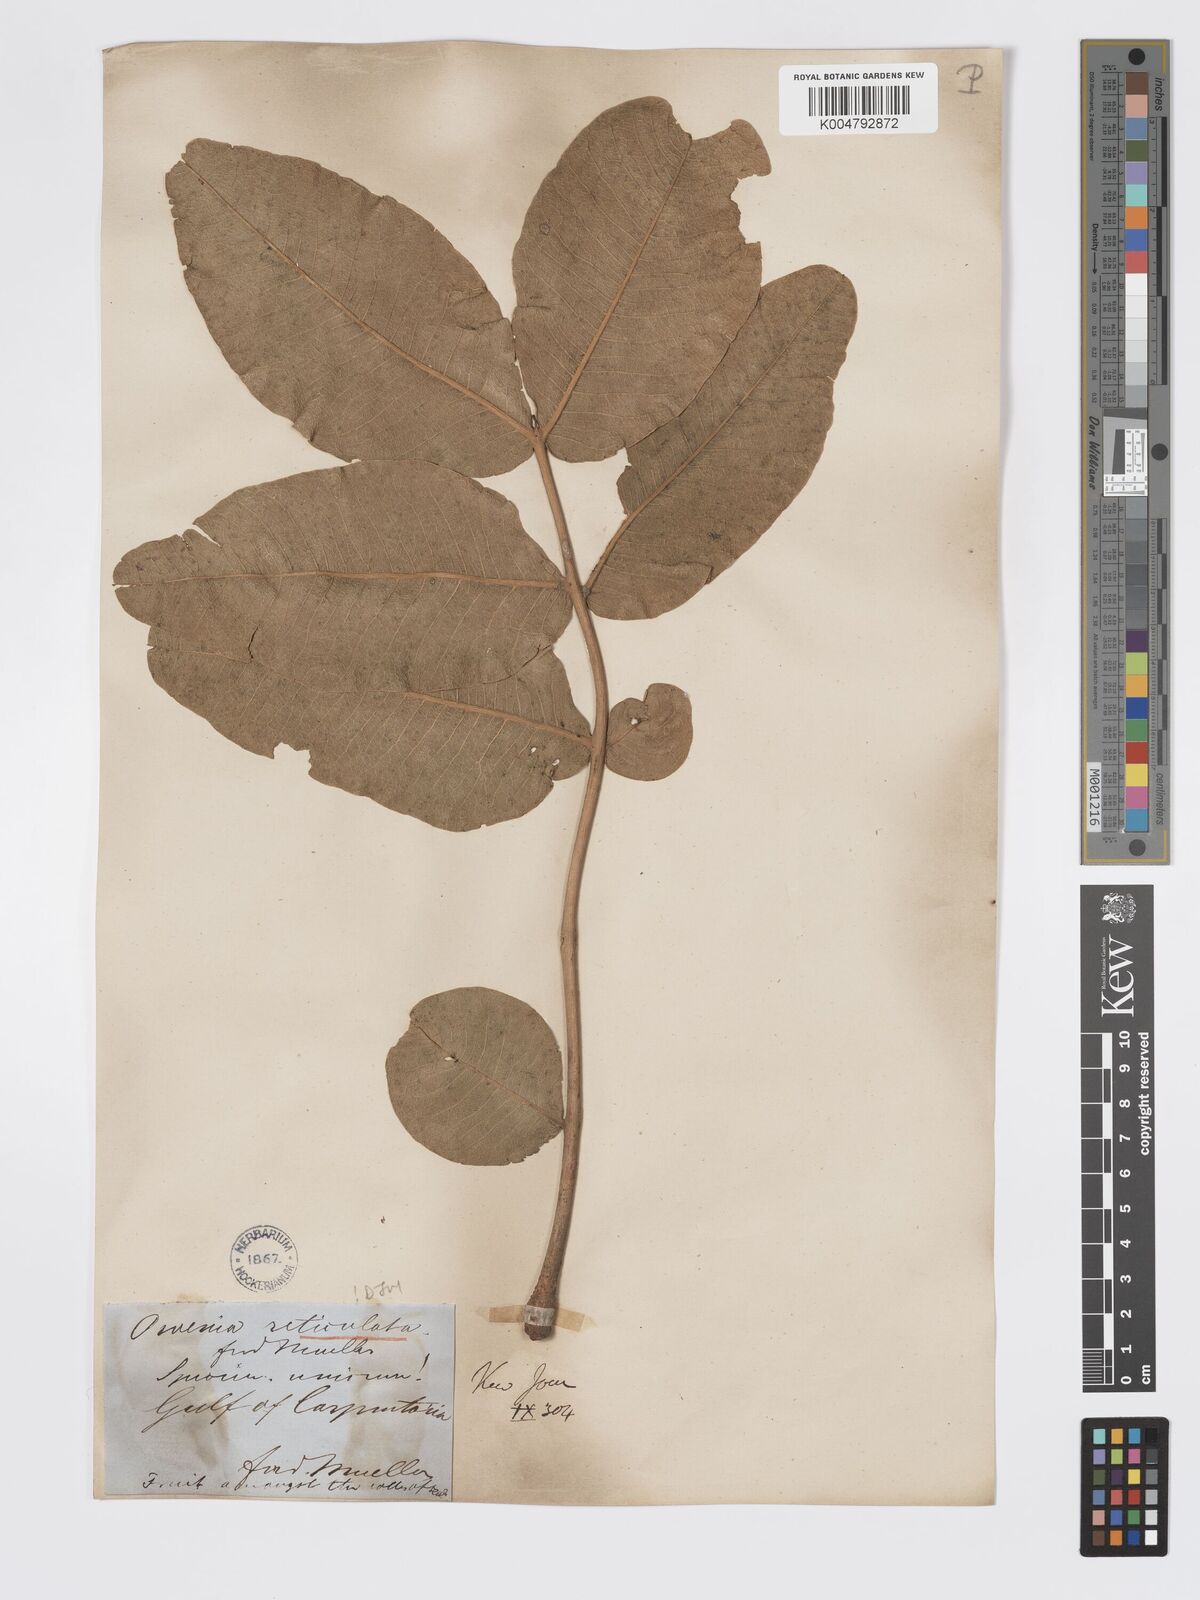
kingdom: Plantae
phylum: Tracheophyta
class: Magnoliopsida
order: Sapindales
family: Meliaceae
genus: Owenia
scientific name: Owenia reticulata
